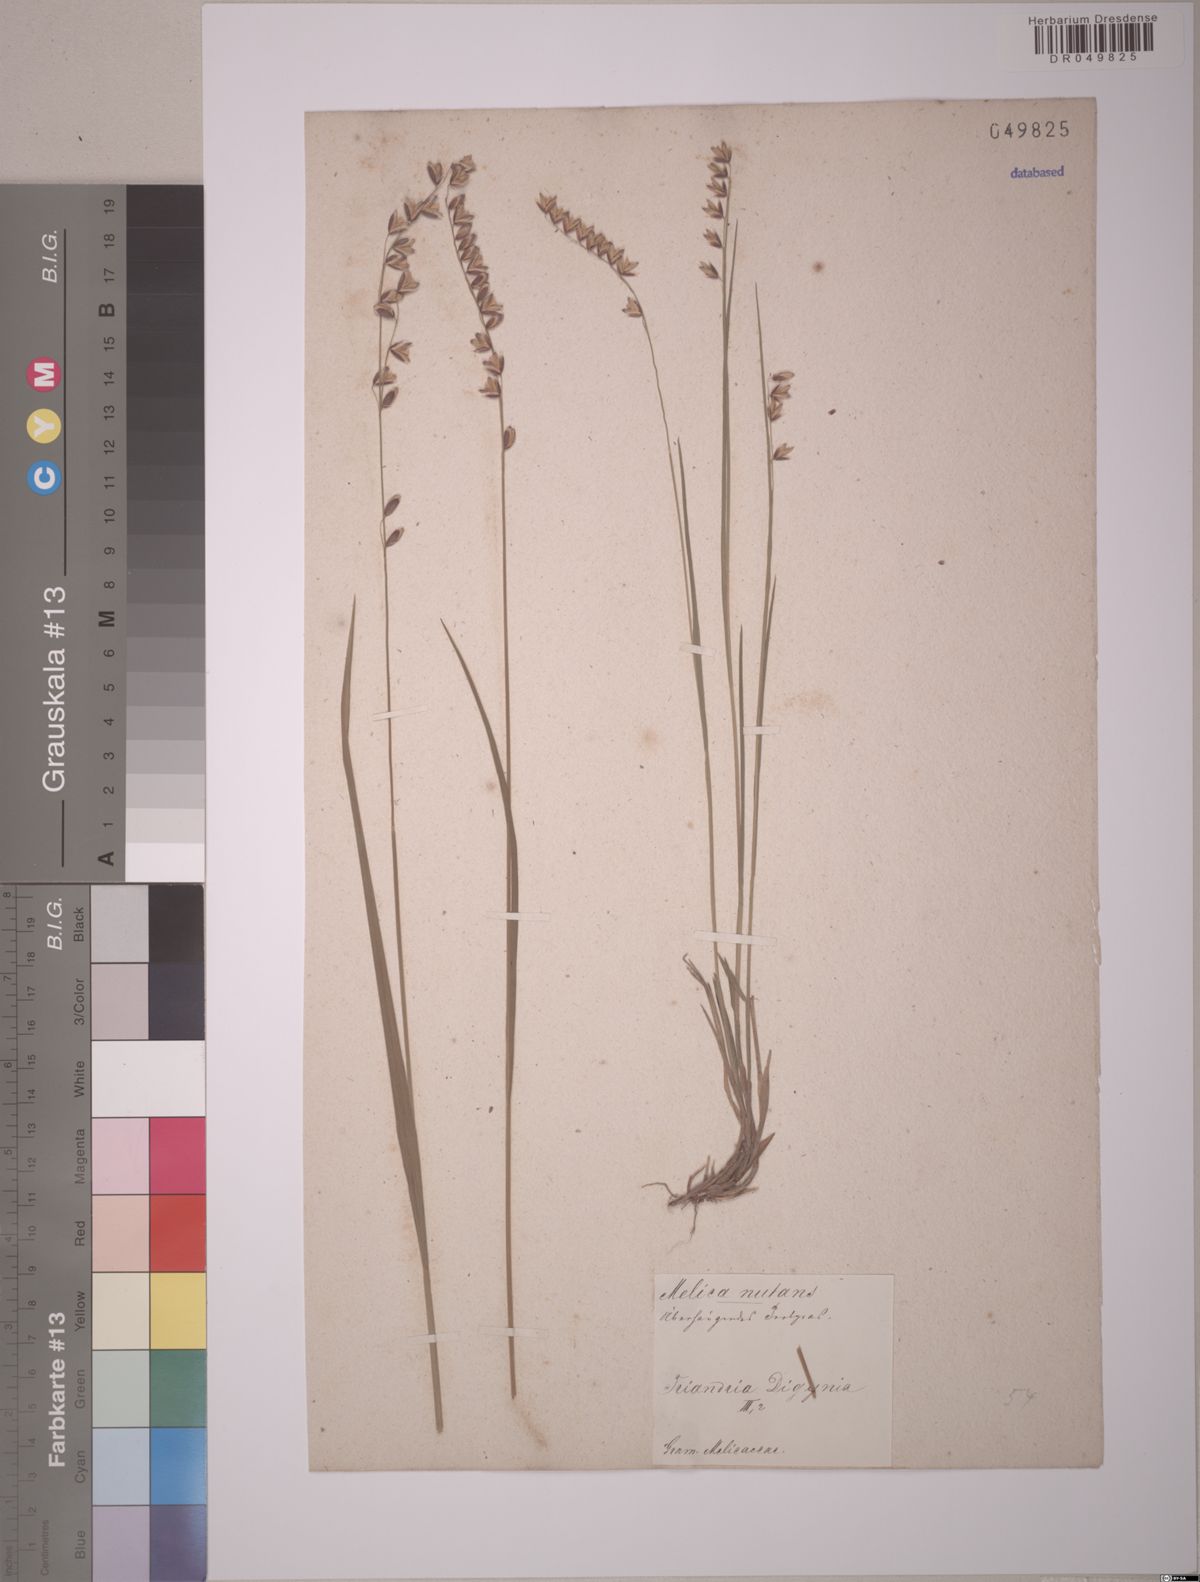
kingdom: Plantae
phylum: Tracheophyta
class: Liliopsida
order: Poales
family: Poaceae
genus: Melica
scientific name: Melica nutans
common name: Mountain melick
